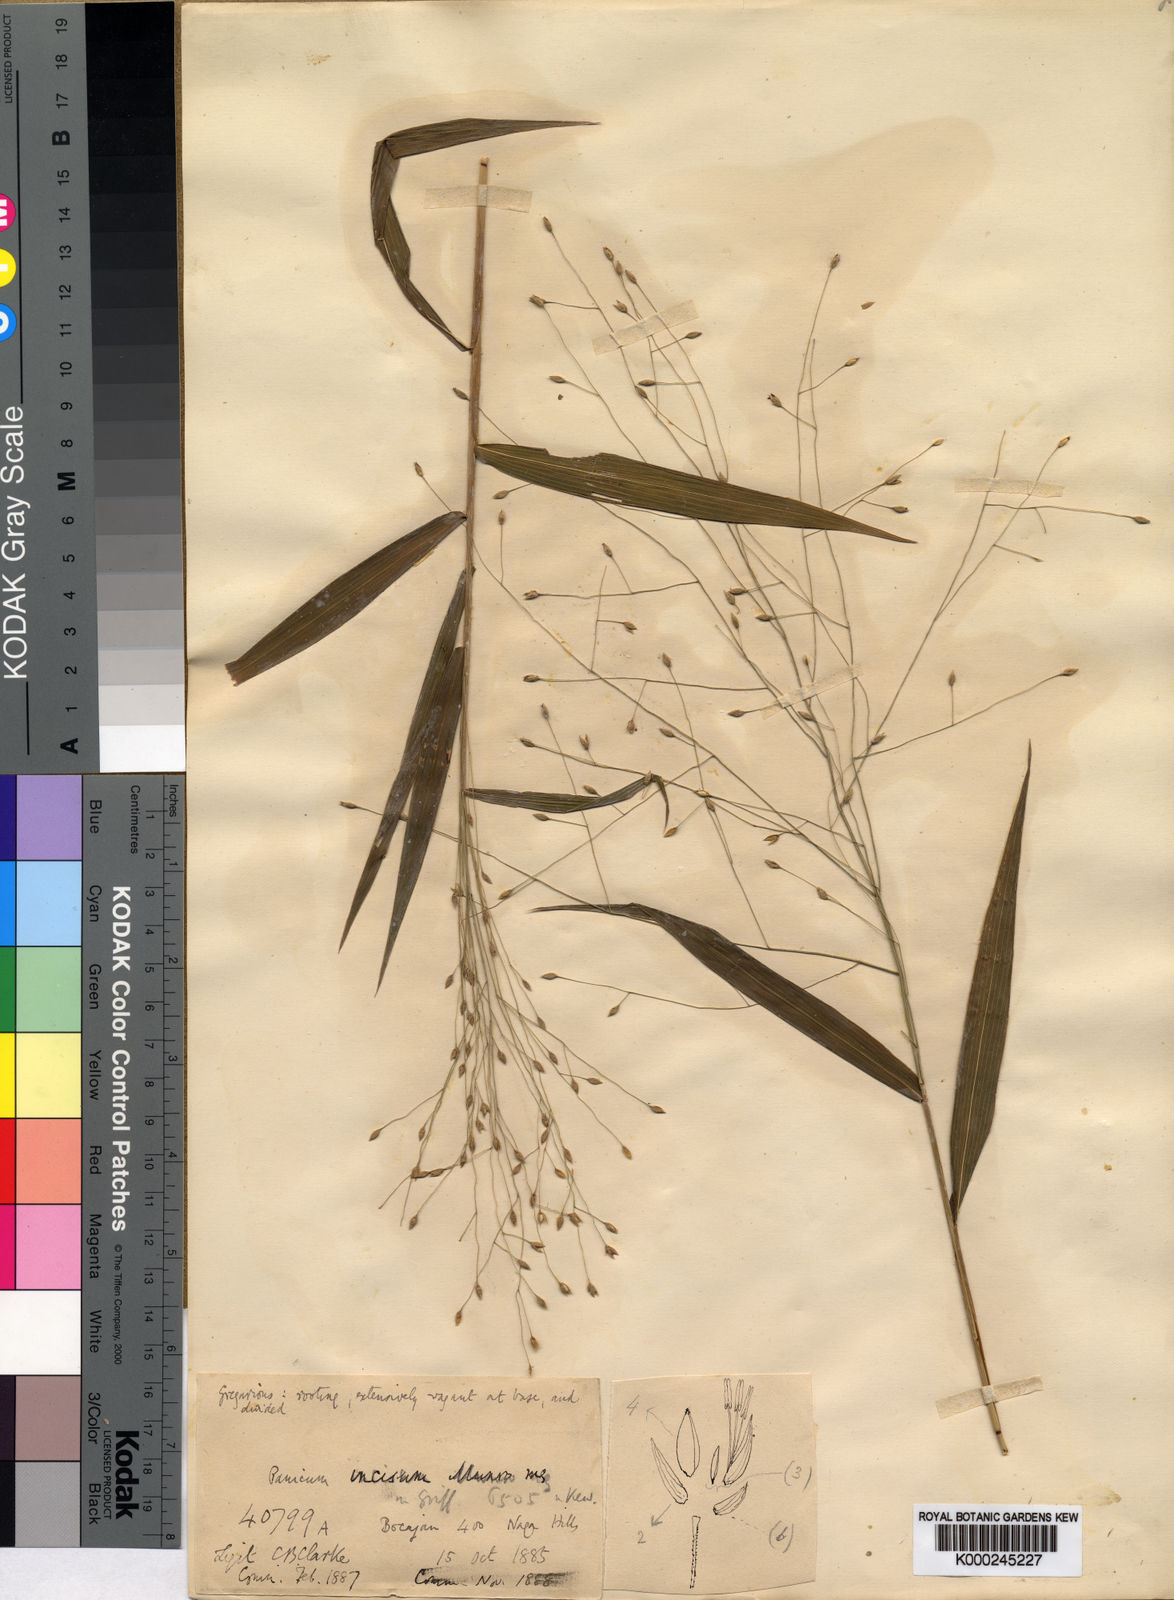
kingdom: Plantae
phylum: Tracheophyta
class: Liliopsida
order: Poales
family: Poaceae
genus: Panicum
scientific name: Panicum incisum
